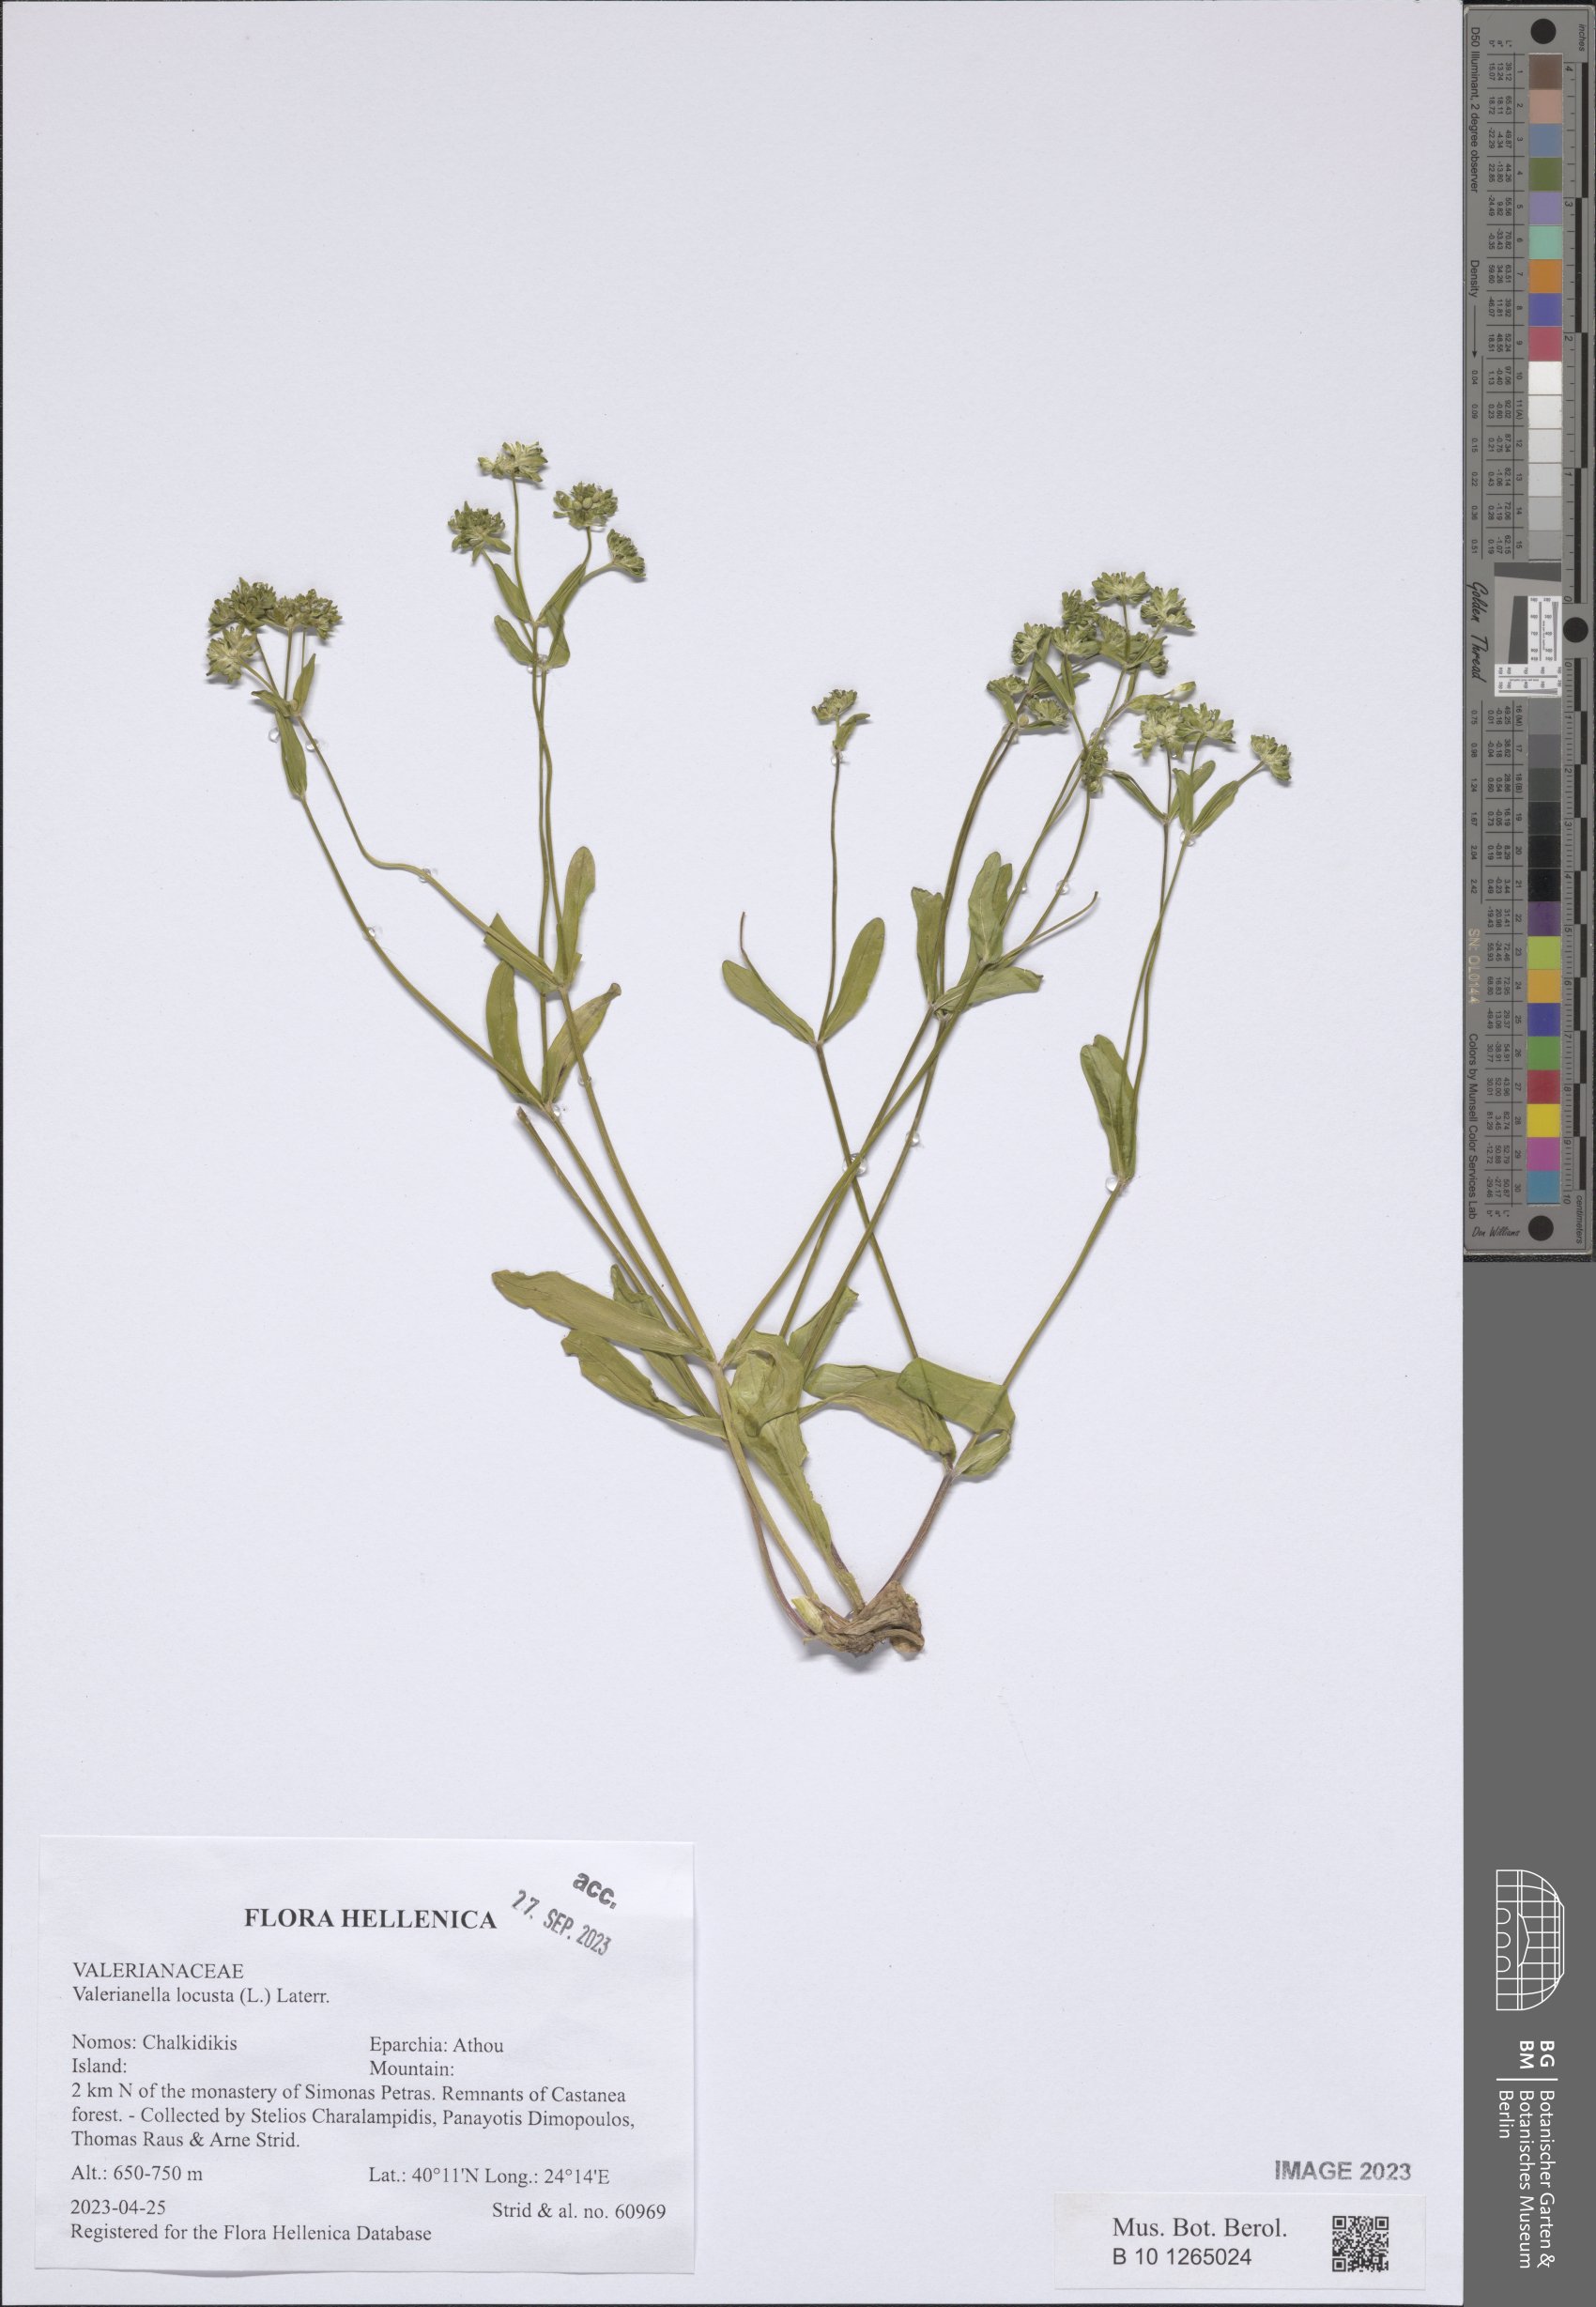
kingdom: Plantae
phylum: Tracheophyta
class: Magnoliopsida
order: Dipsacales
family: Caprifoliaceae
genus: Valerianella
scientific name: Valerianella locusta
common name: Common cornsalad
